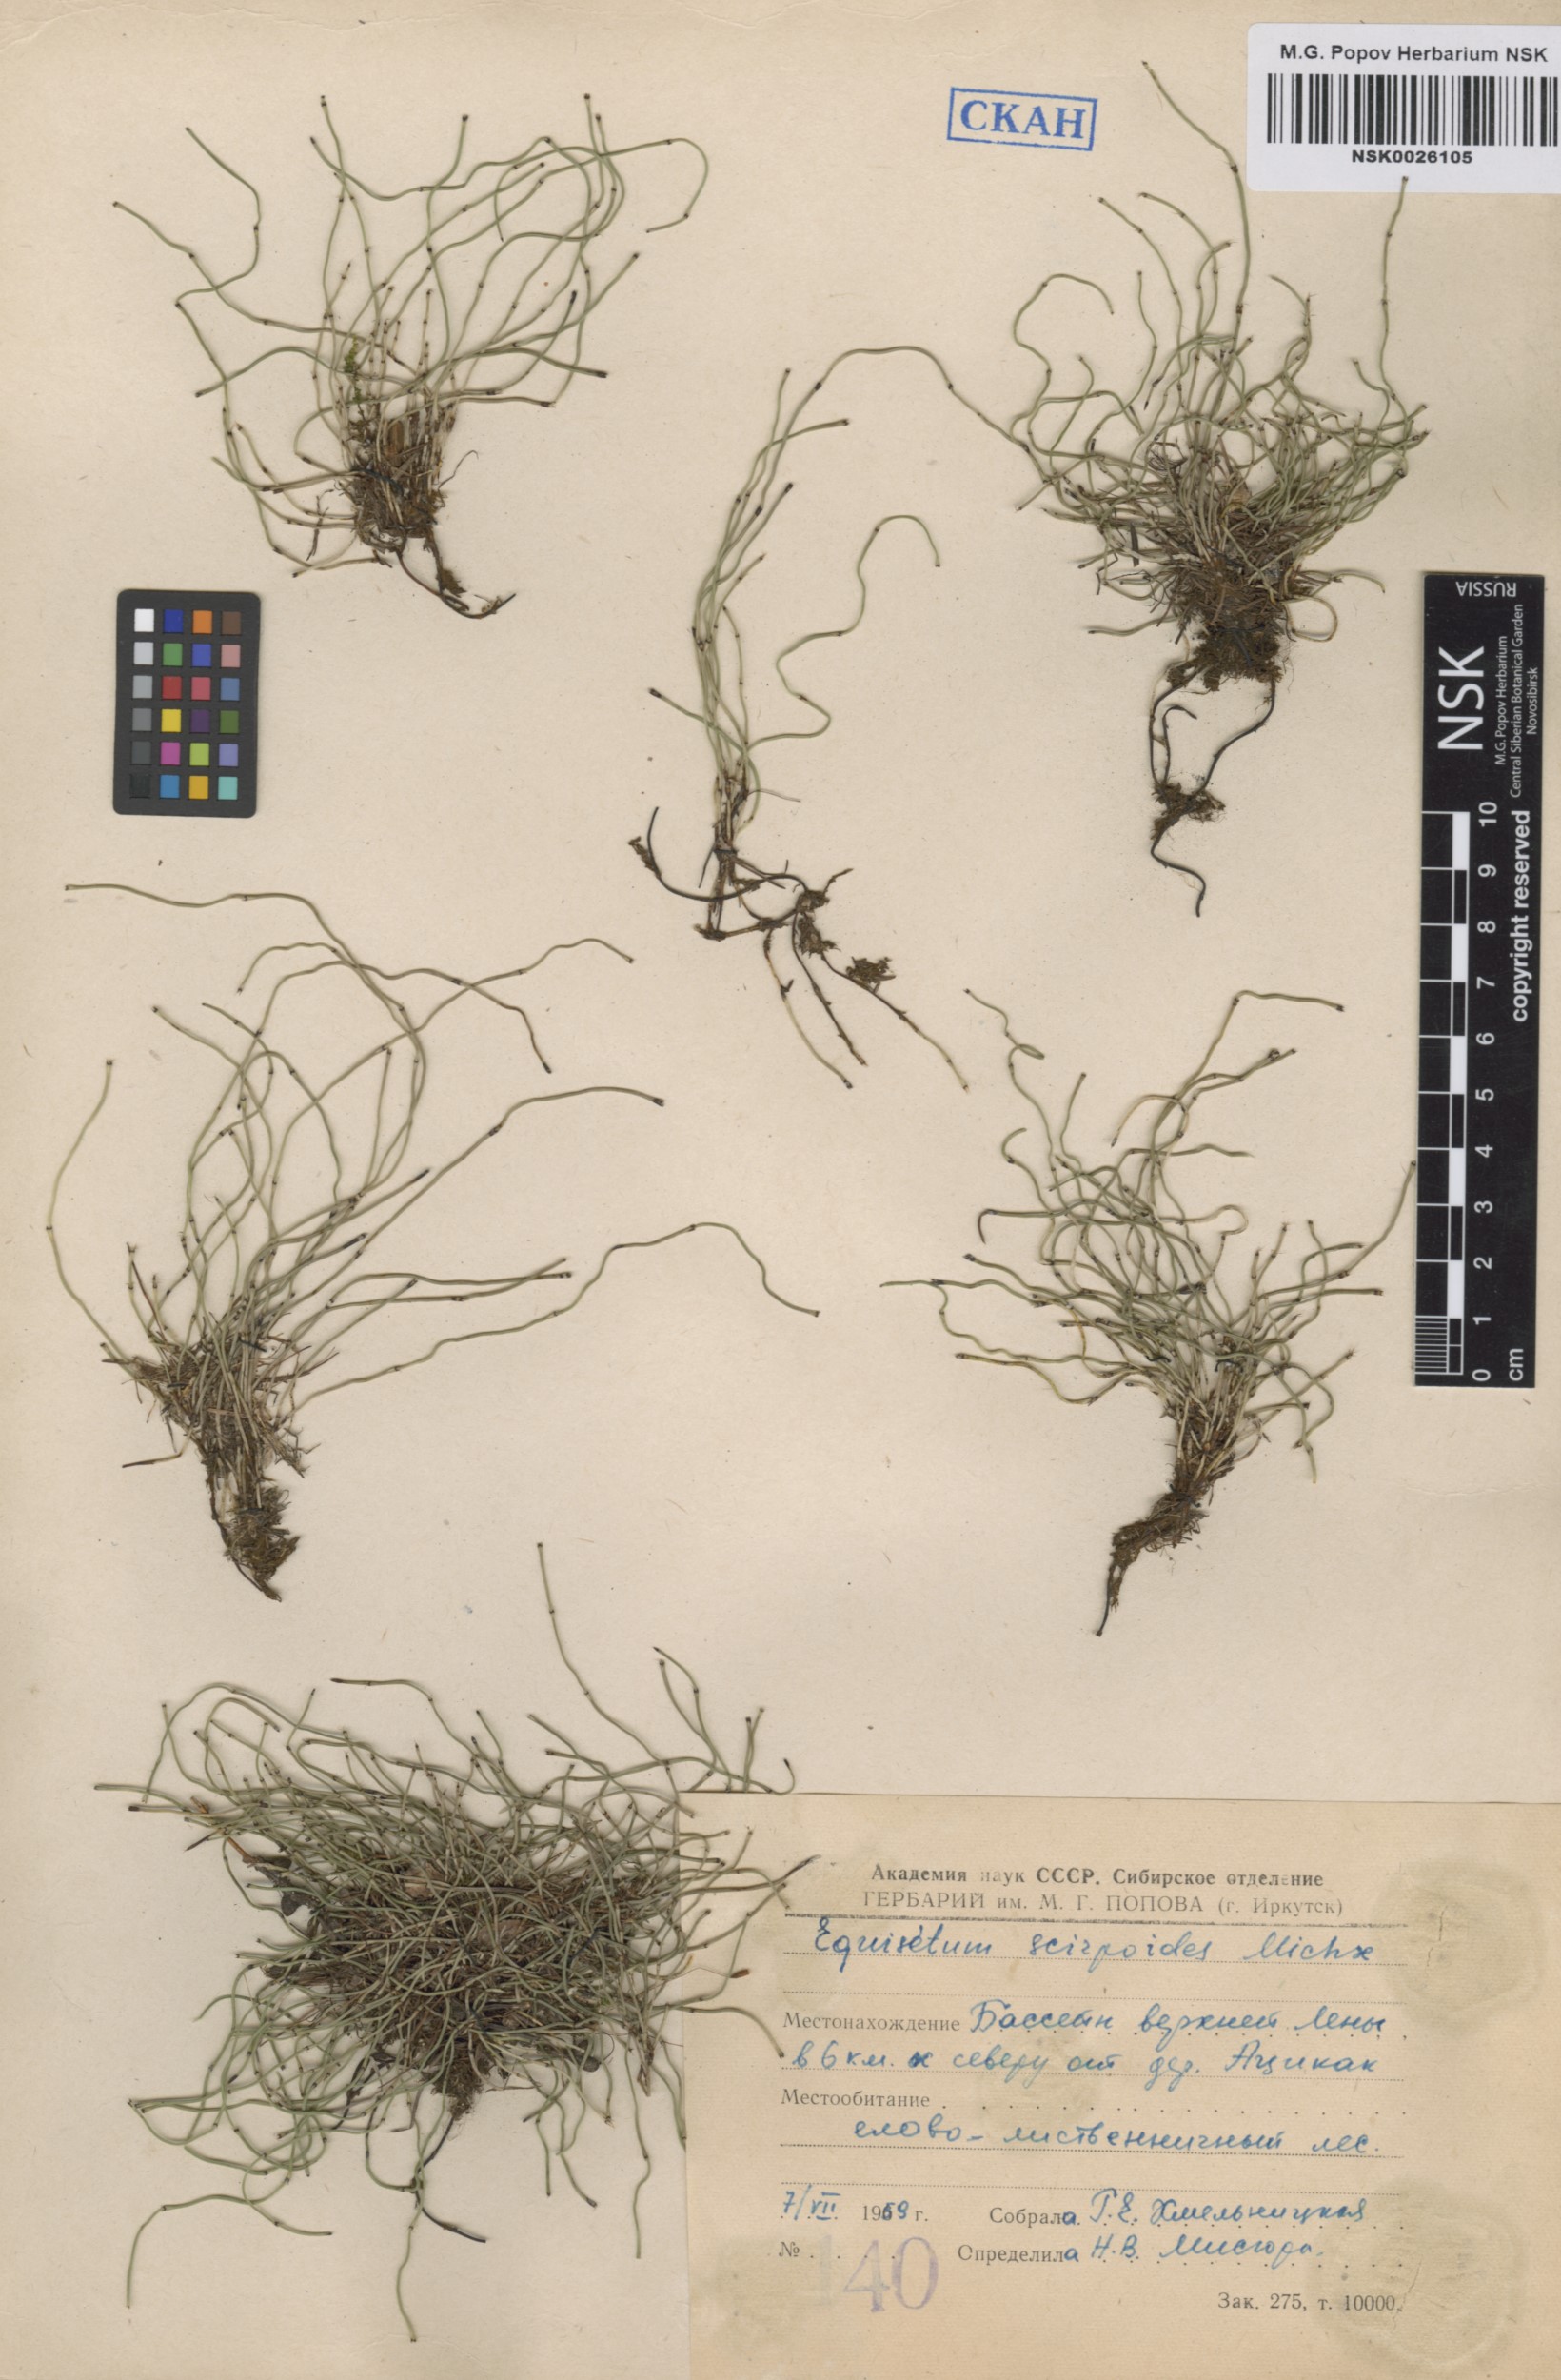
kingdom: Plantae
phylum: Tracheophyta
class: Polypodiopsida
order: Equisetales
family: Equisetaceae
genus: Equisetum
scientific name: Equisetum scirpoides
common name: Delicate horsetail
